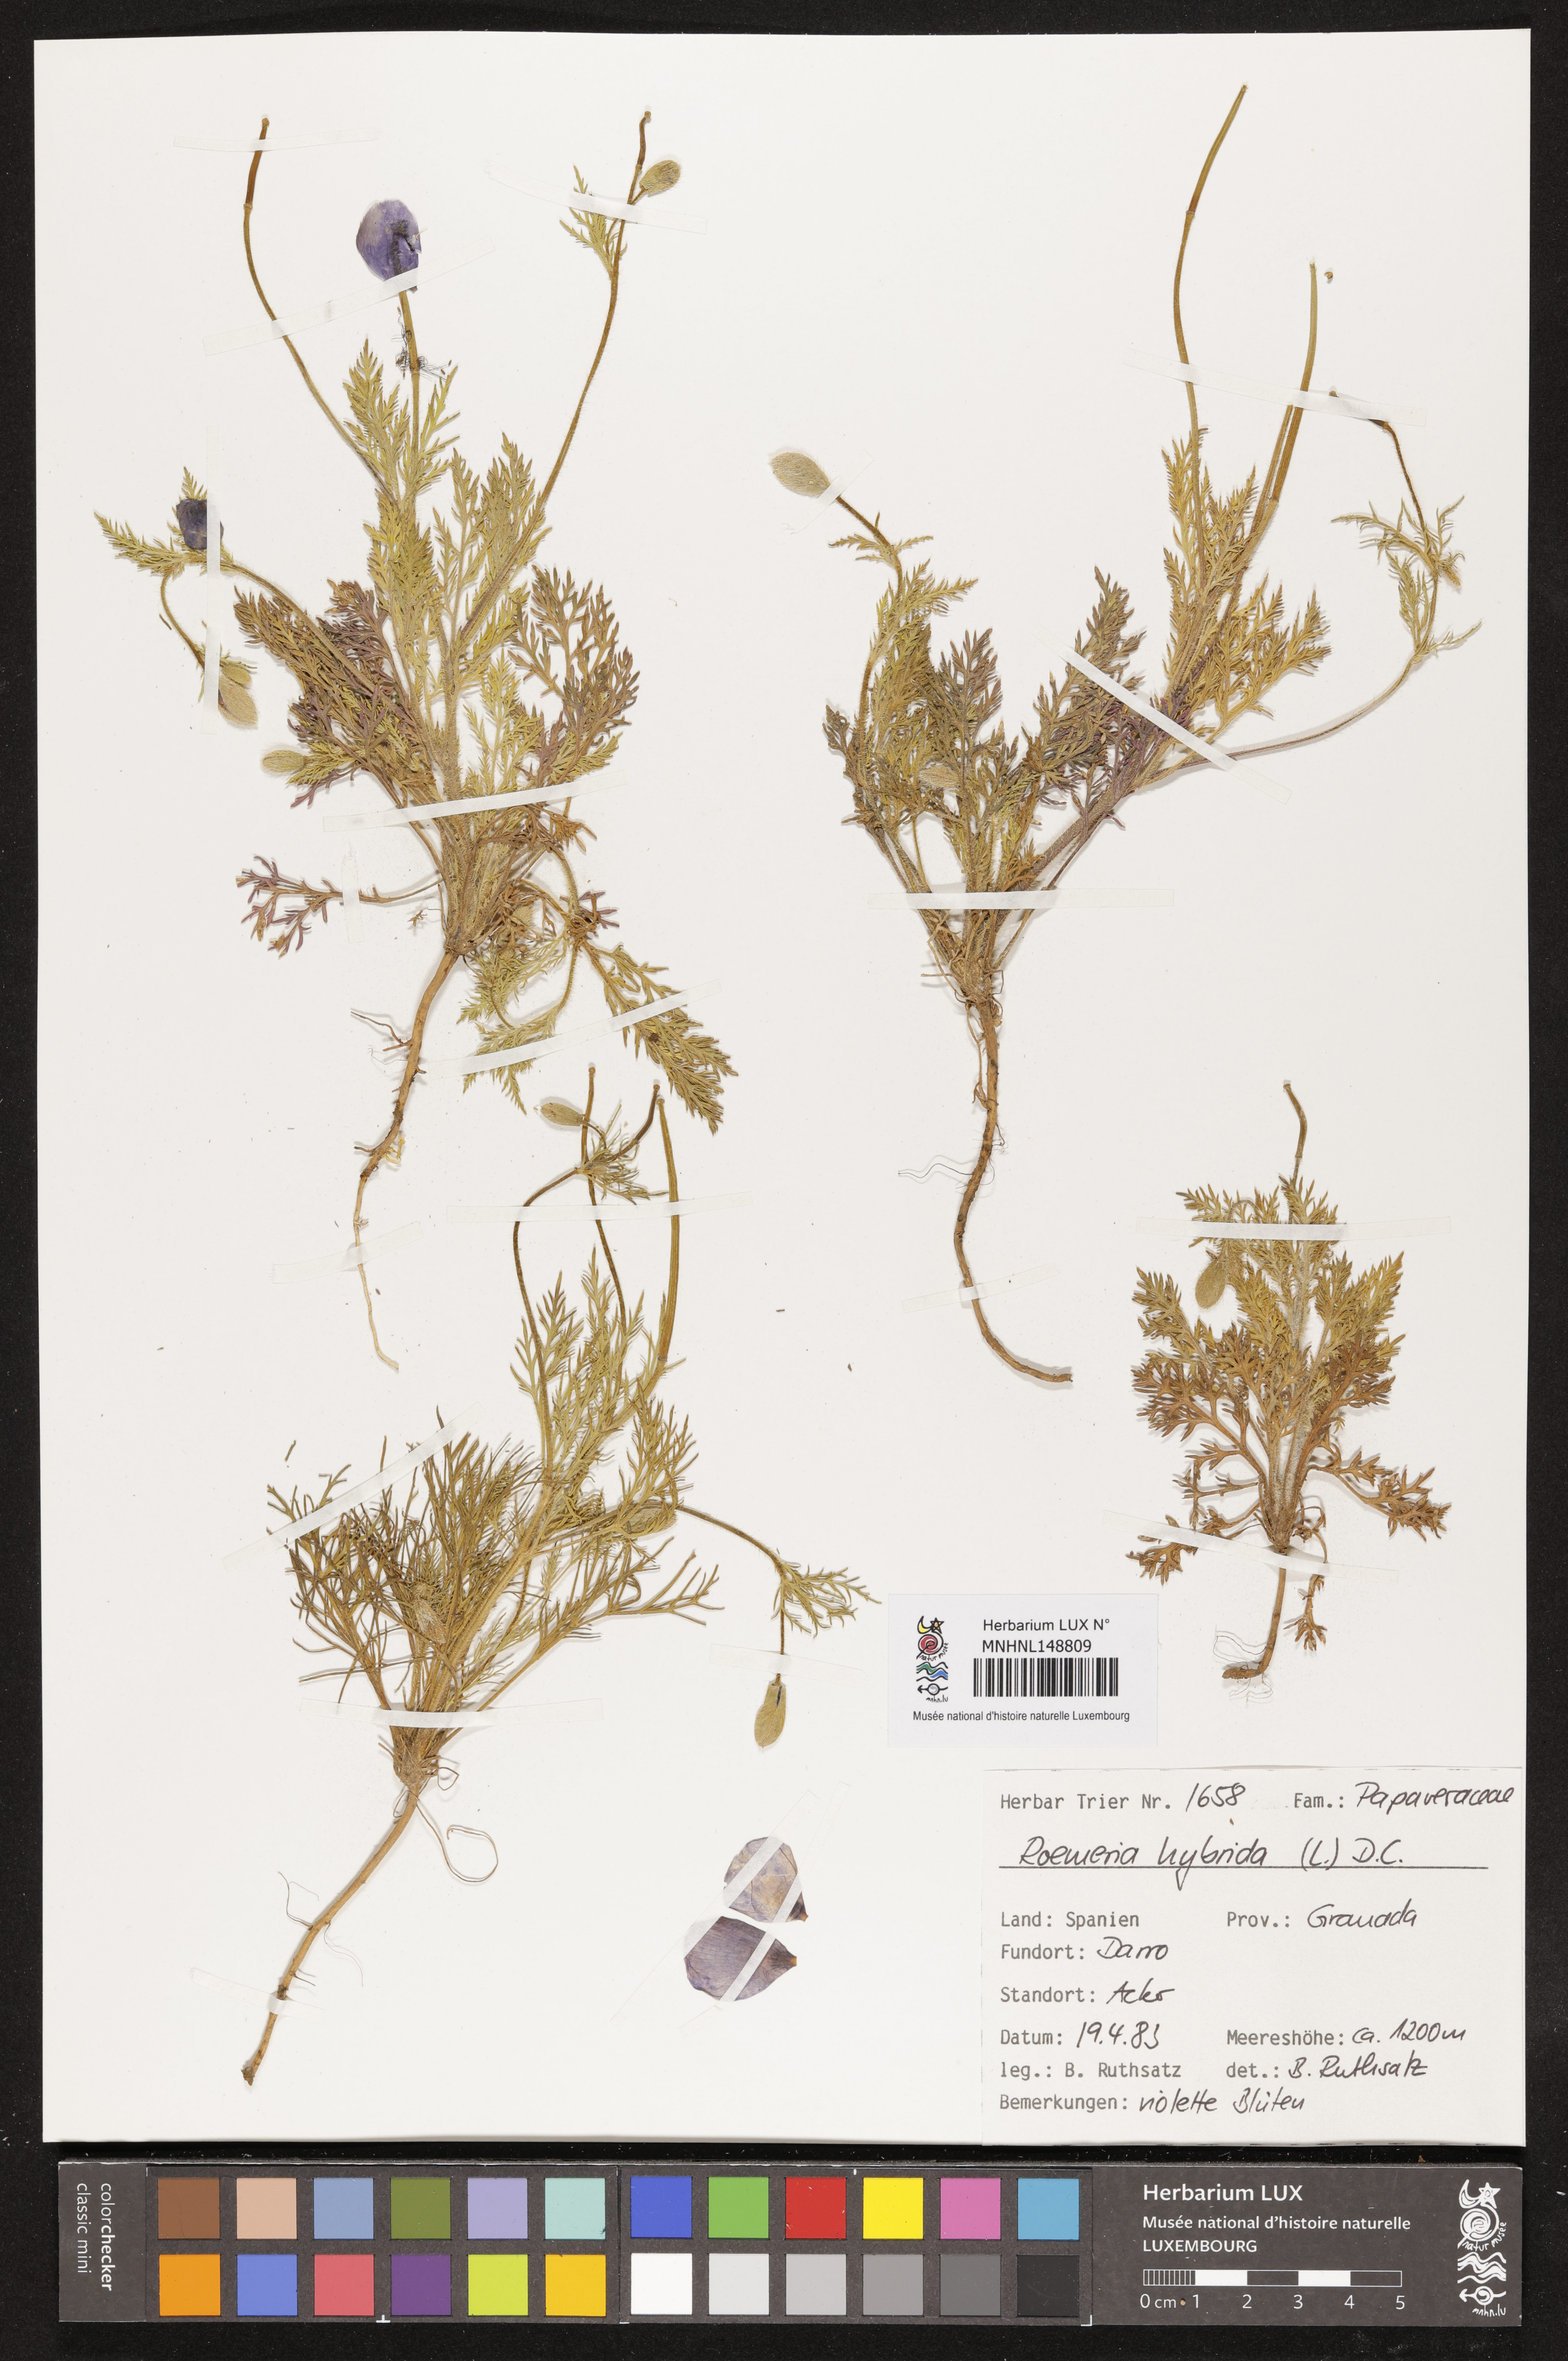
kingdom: Plantae
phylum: Tracheophyta
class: Magnoliopsida
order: Ranunculales
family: Papaveraceae
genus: Roemeria
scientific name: Roemeria hybrida
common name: Violet horned-poppy
